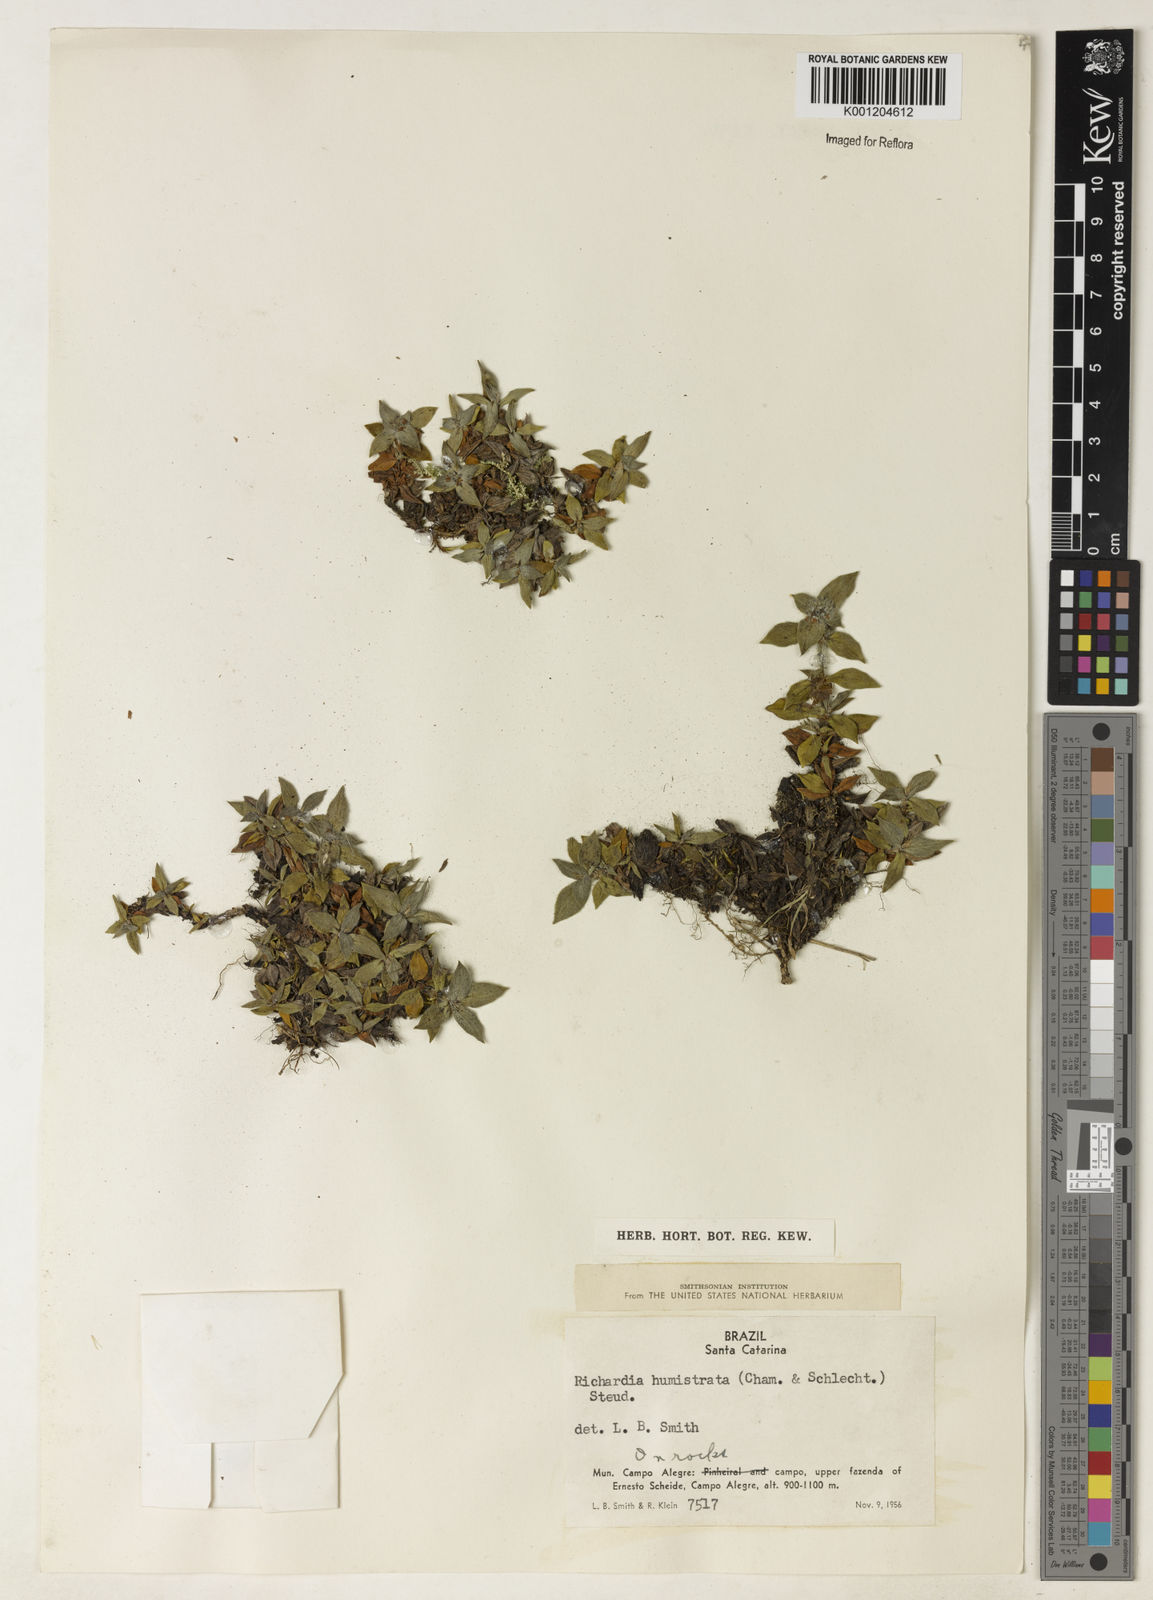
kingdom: Plantae
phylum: Tracheophyta
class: Magnoliopsida
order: Gentianales
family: Rubiaceae
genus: Richardia
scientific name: Richardia humistrata
